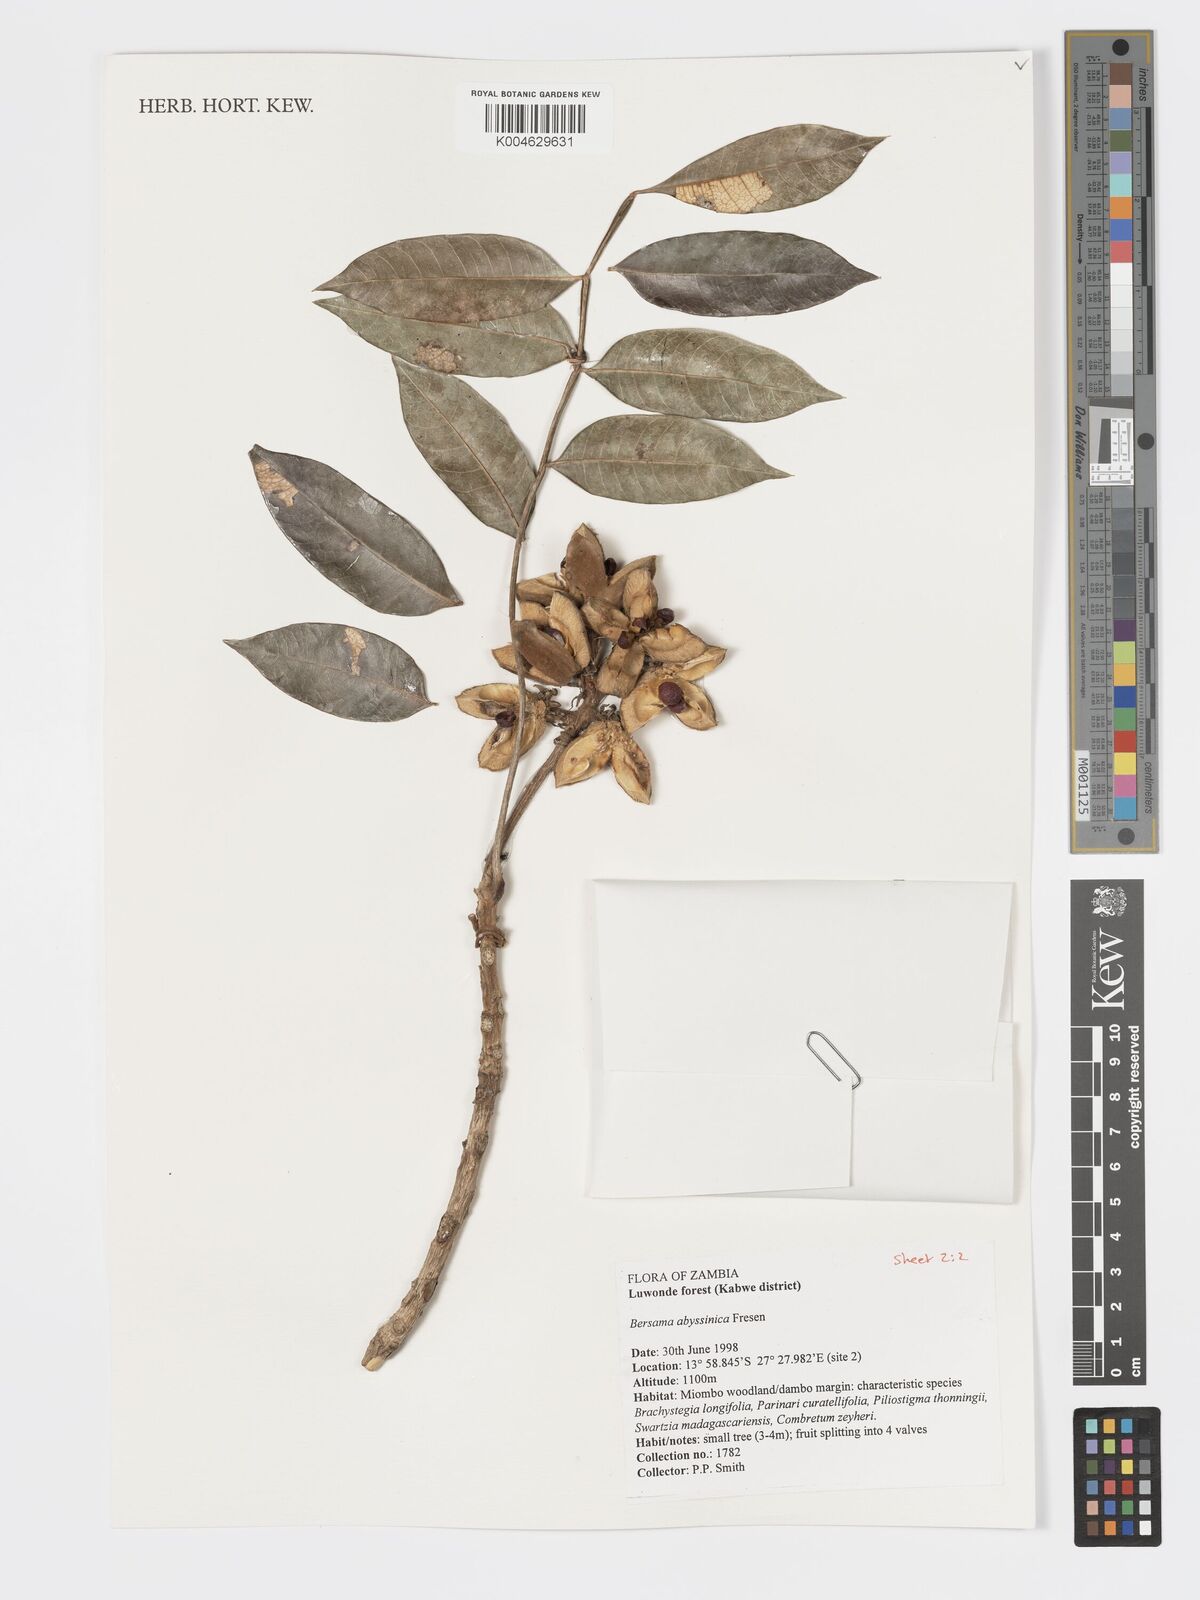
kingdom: Plantae
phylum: Tracheophyta
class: Magnoliopsida
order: Geraniales
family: Melianthaceae
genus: Bersama
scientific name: Bersama abyssinica
